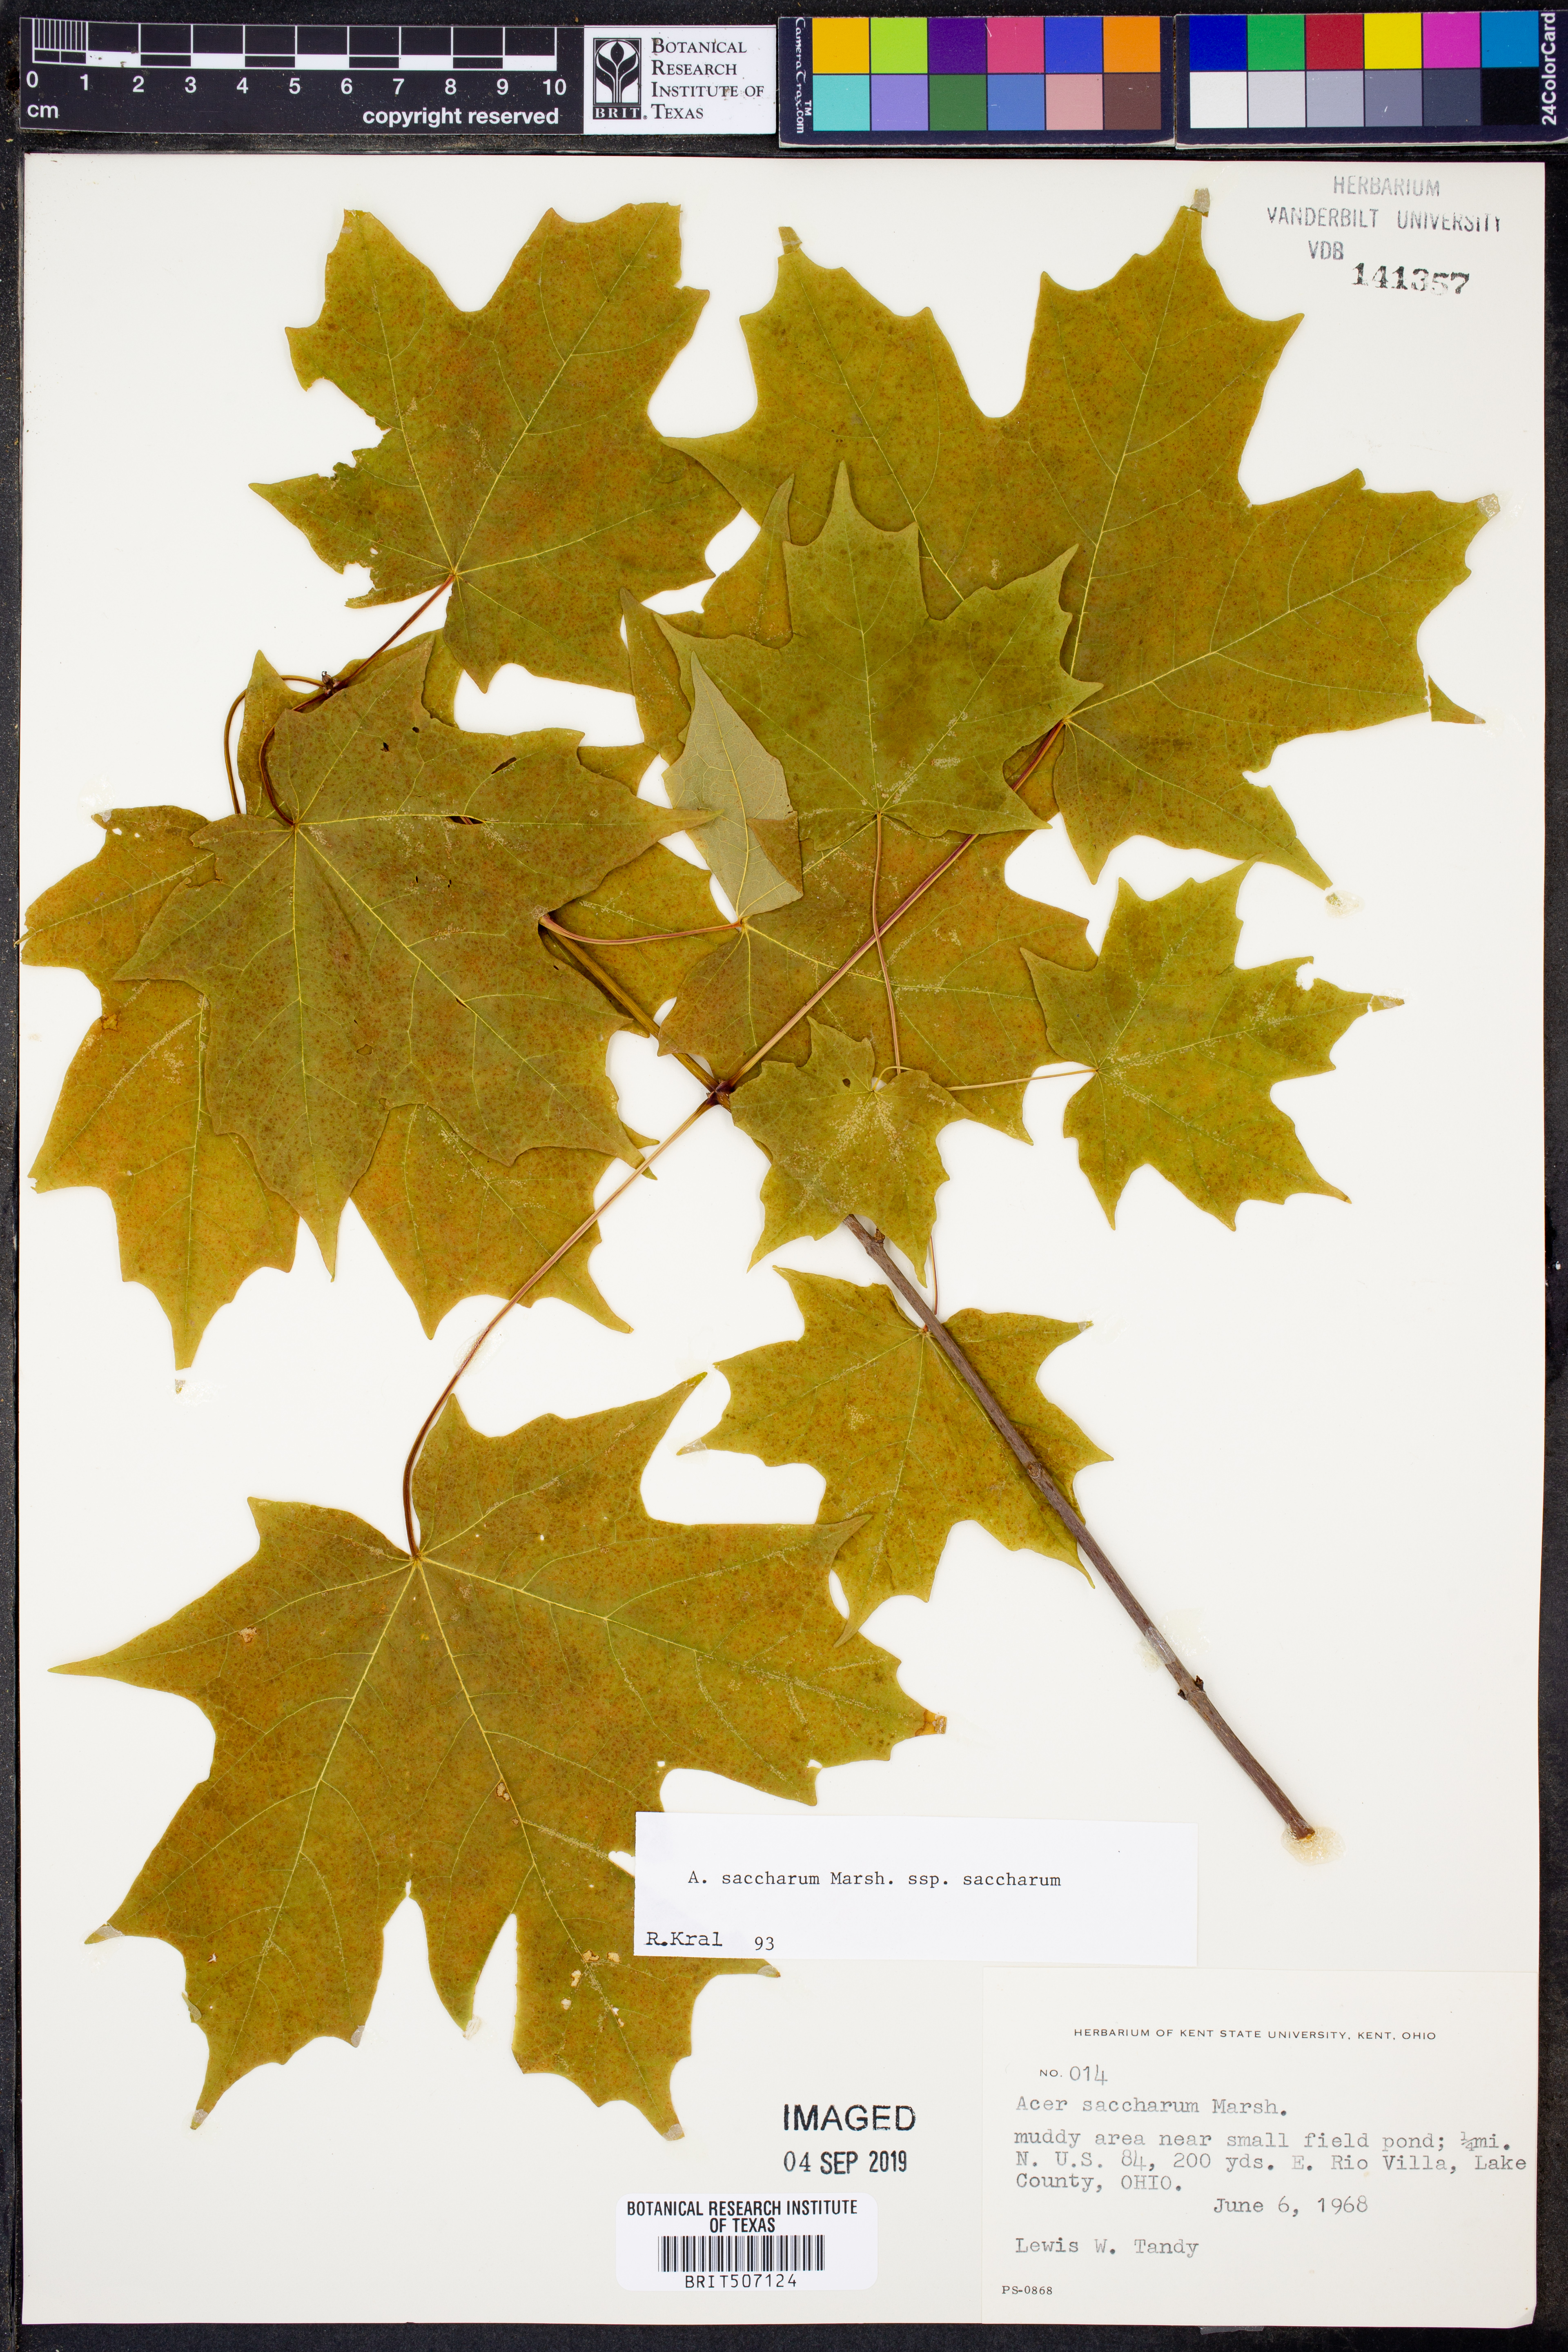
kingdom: Plantae
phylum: Tracheophyta
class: Magnoliopsida
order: Sapindales
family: Sapindaceae
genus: Acer
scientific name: Acer saccharum
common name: Sugar maple
